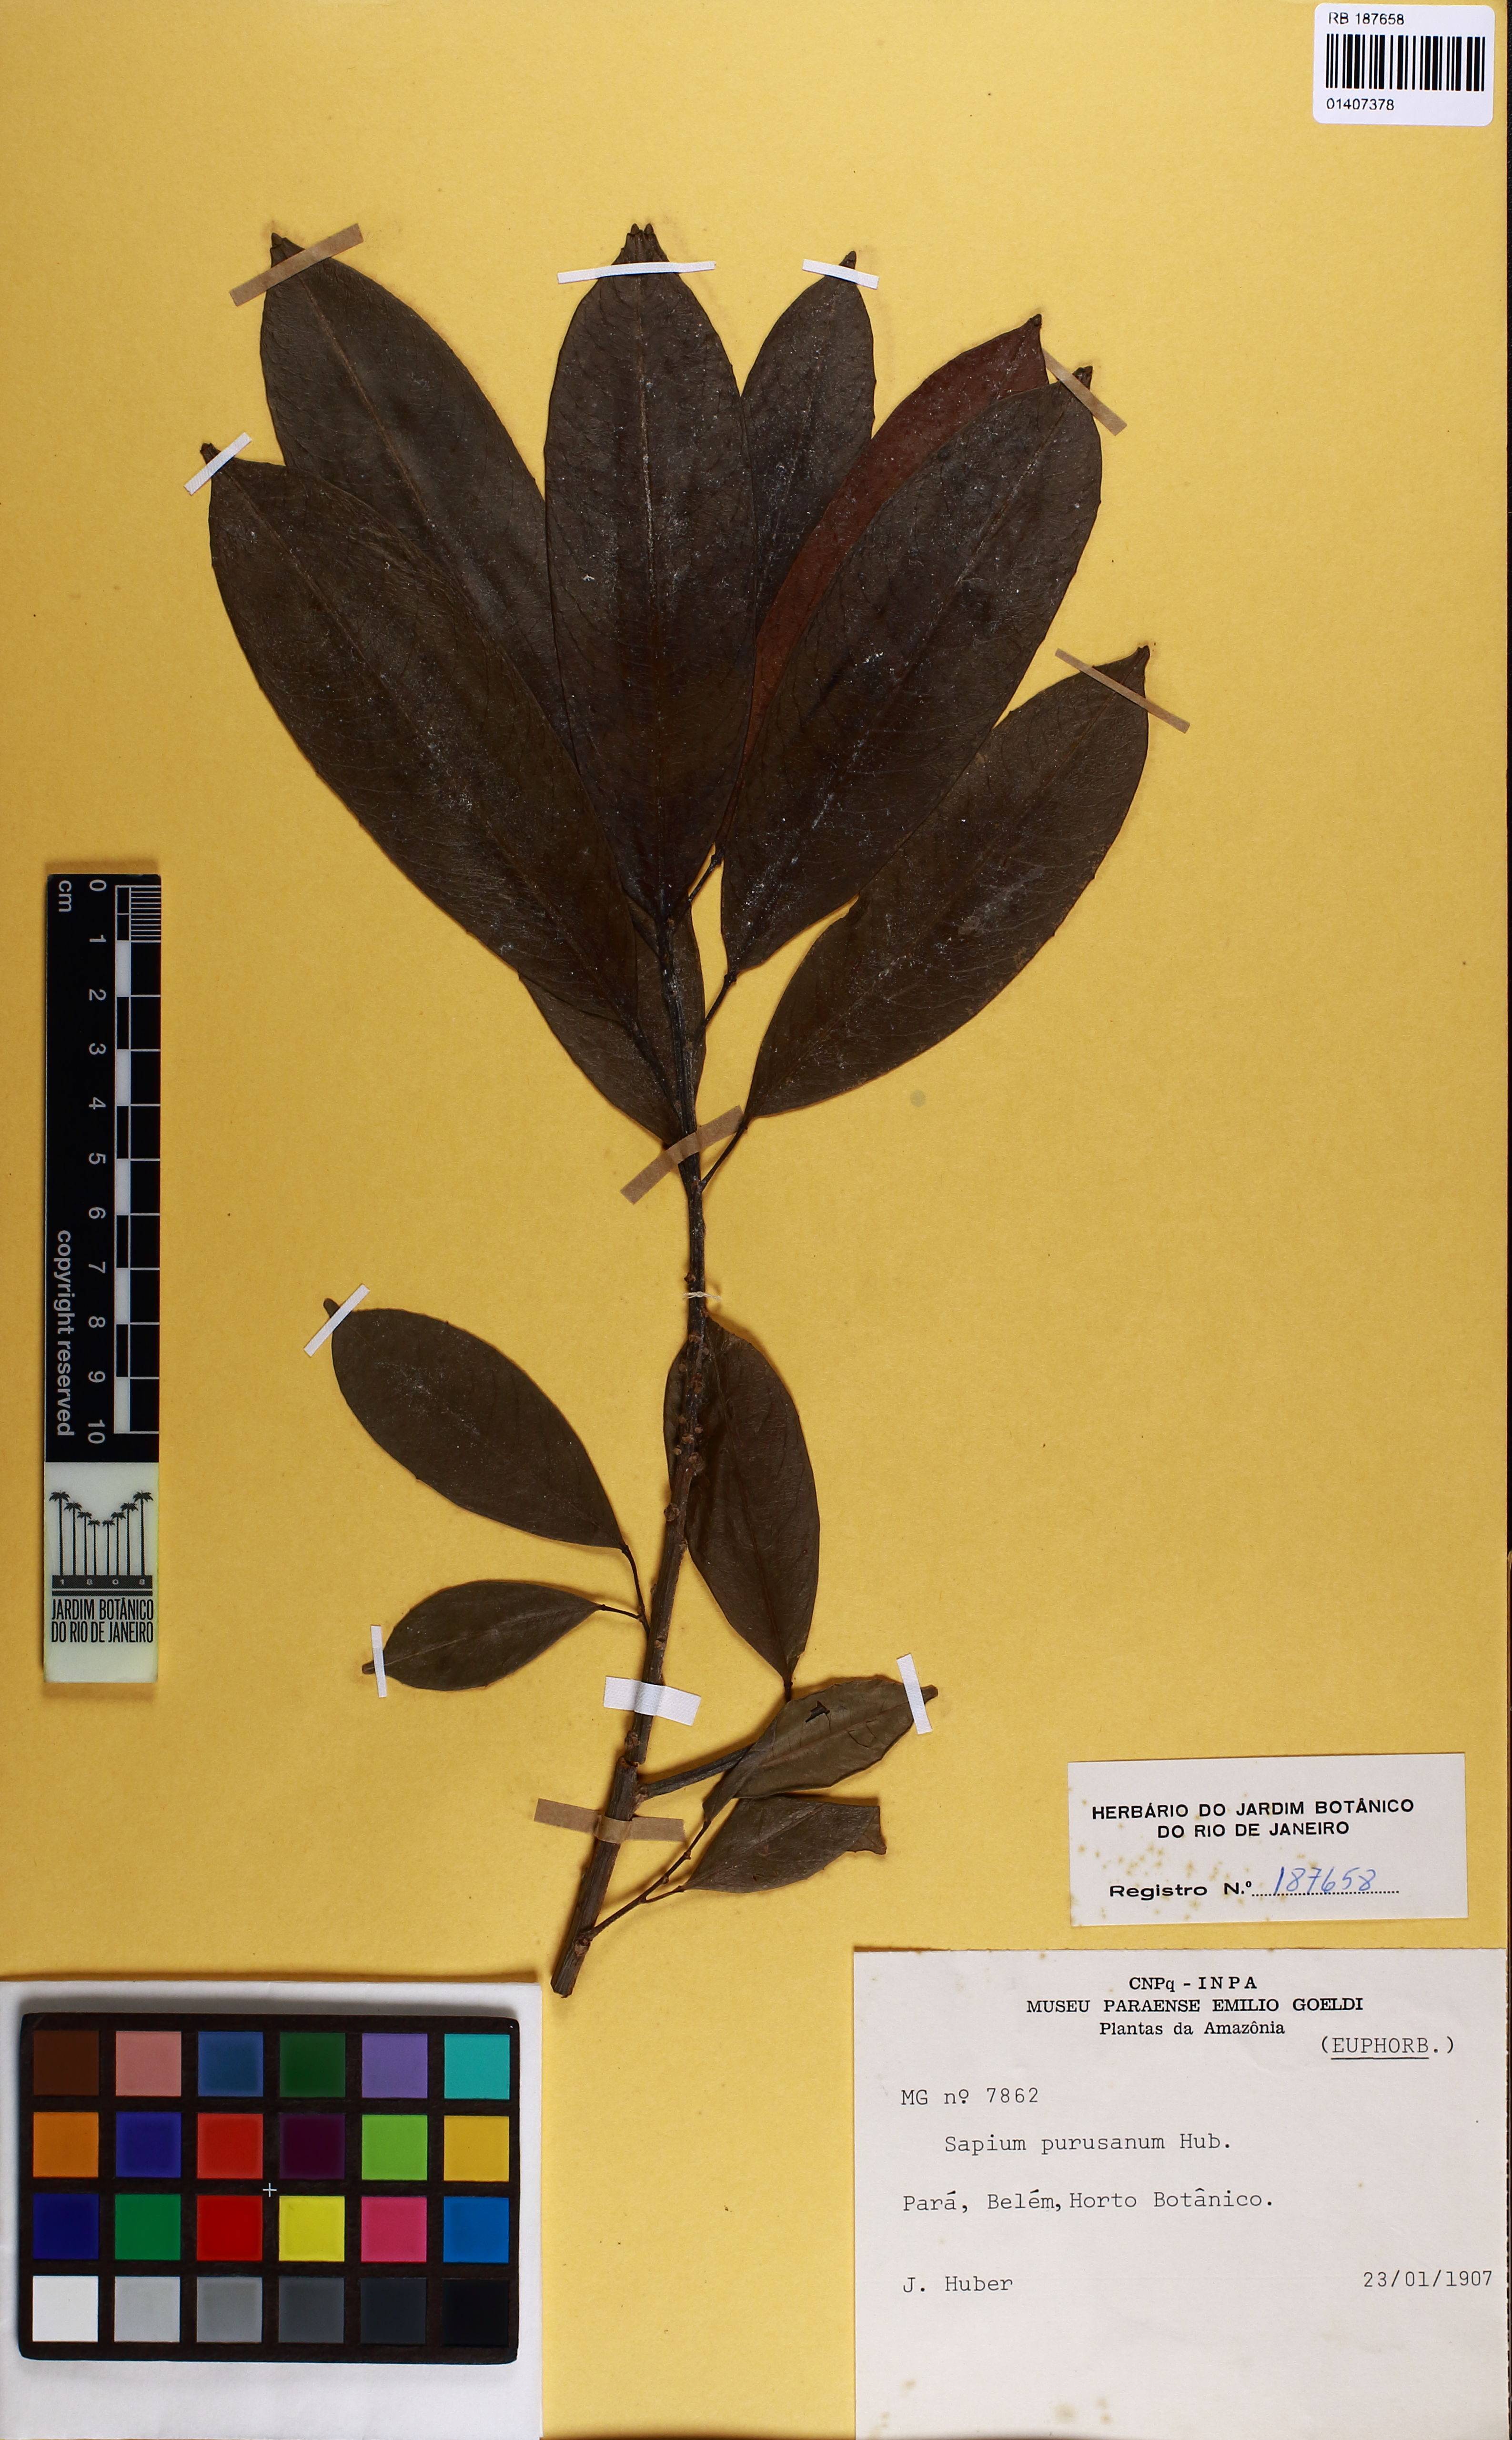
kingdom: Plantae
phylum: Tracheophyta
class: Magnoliopsida
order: Malpighiales
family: Euphorbiaceae
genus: Sapium
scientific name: Sapium purusanum
